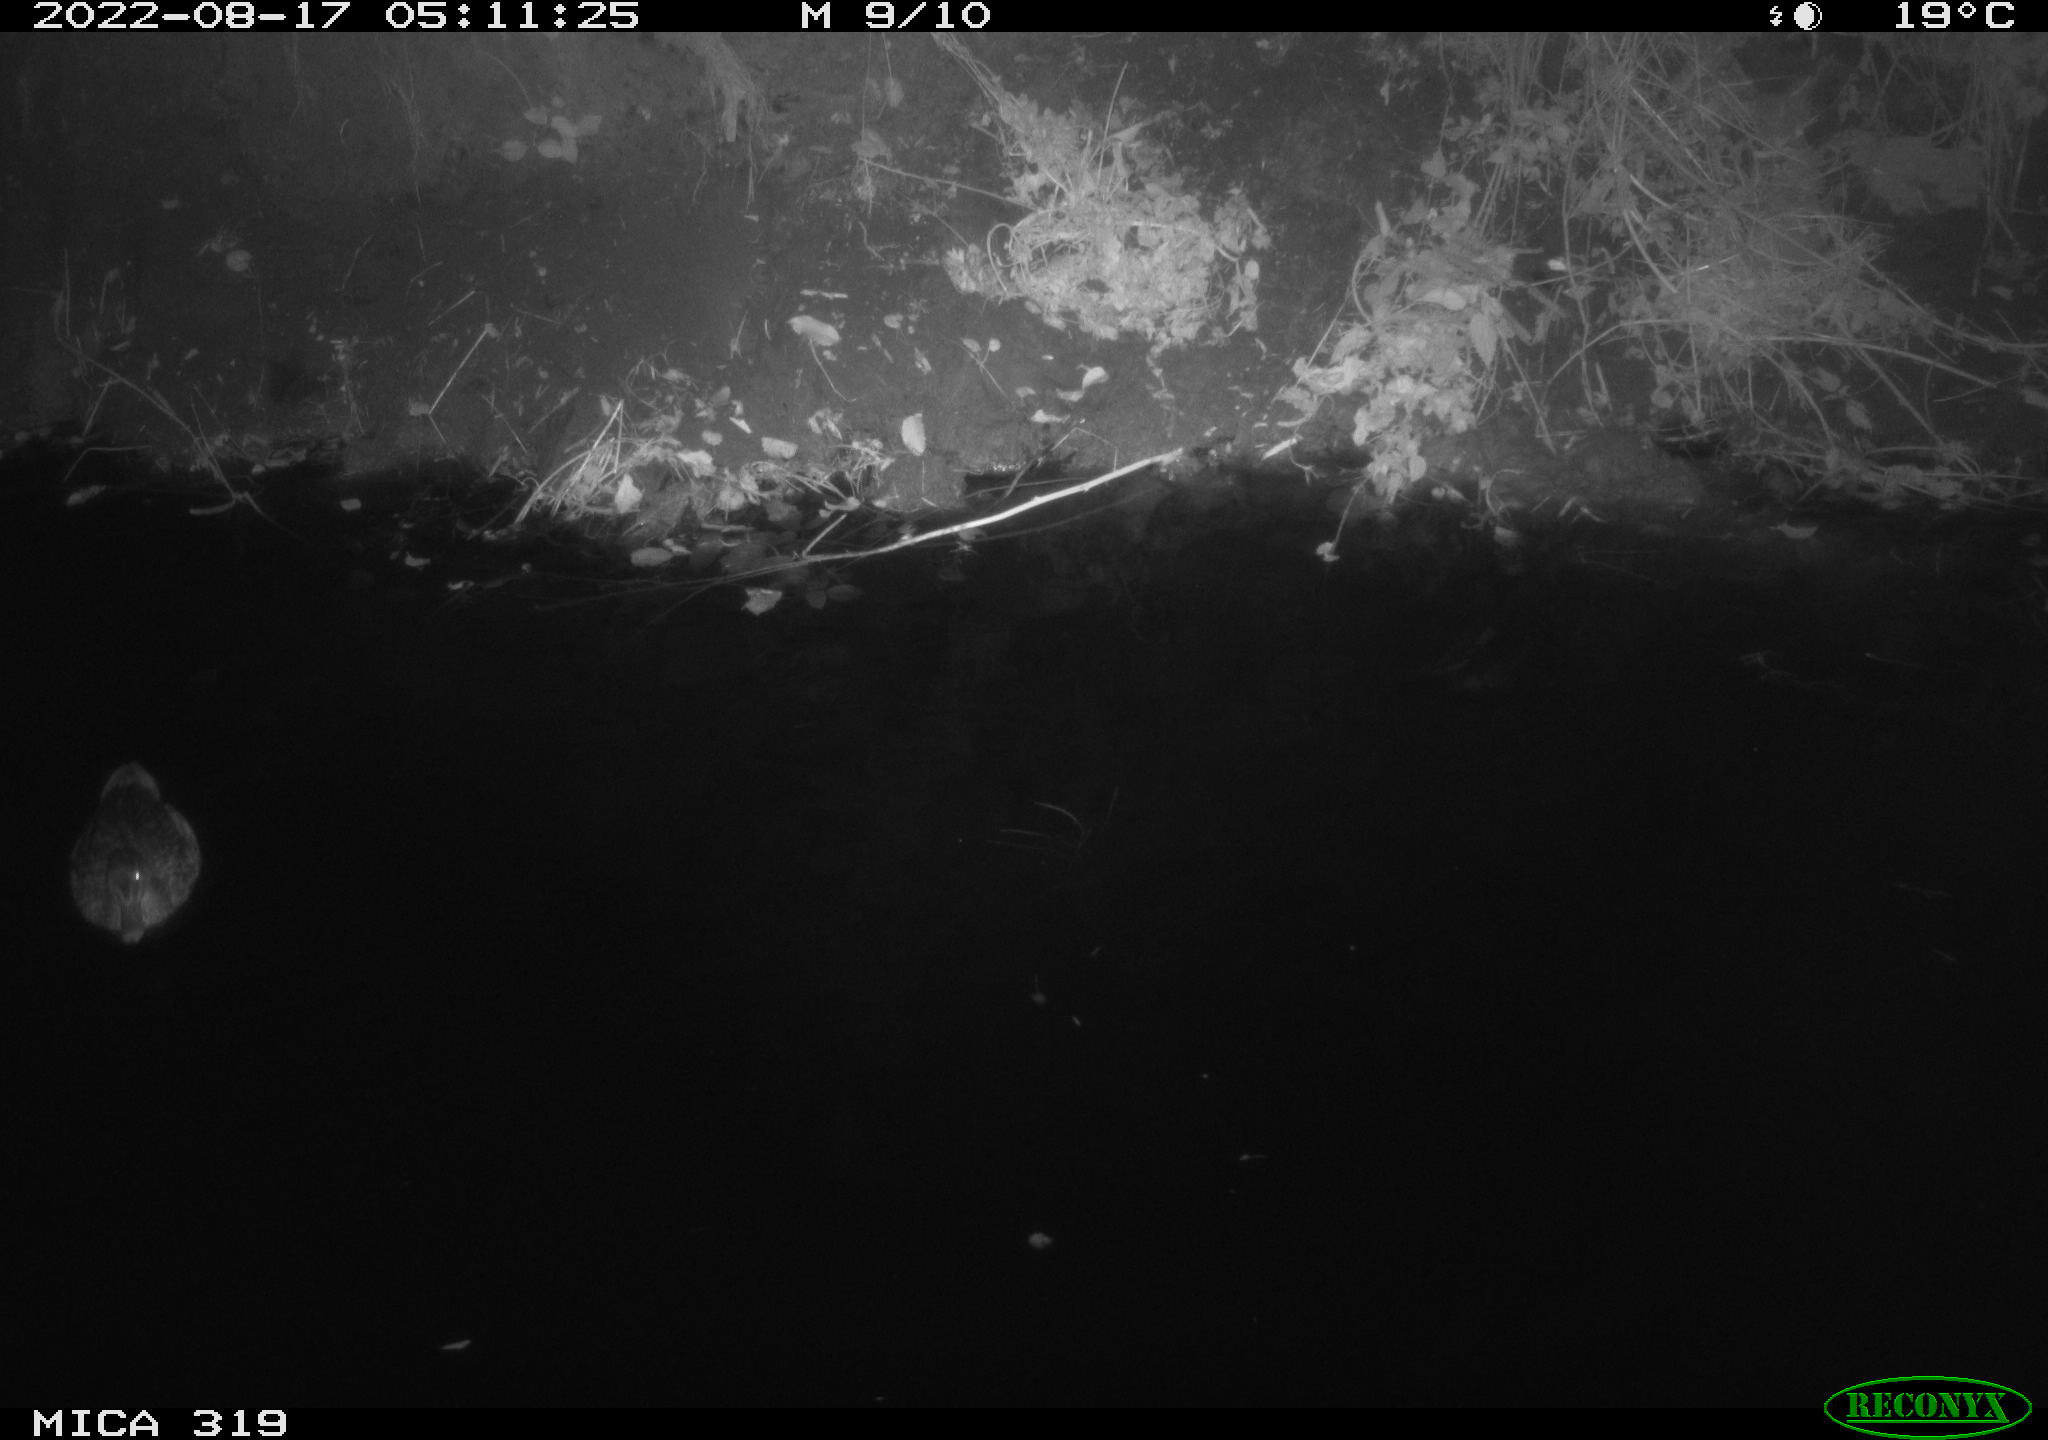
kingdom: Animalia
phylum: Chordata
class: Aves
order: Anseriformes
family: Anatidae
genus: Anas
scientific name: Anas
